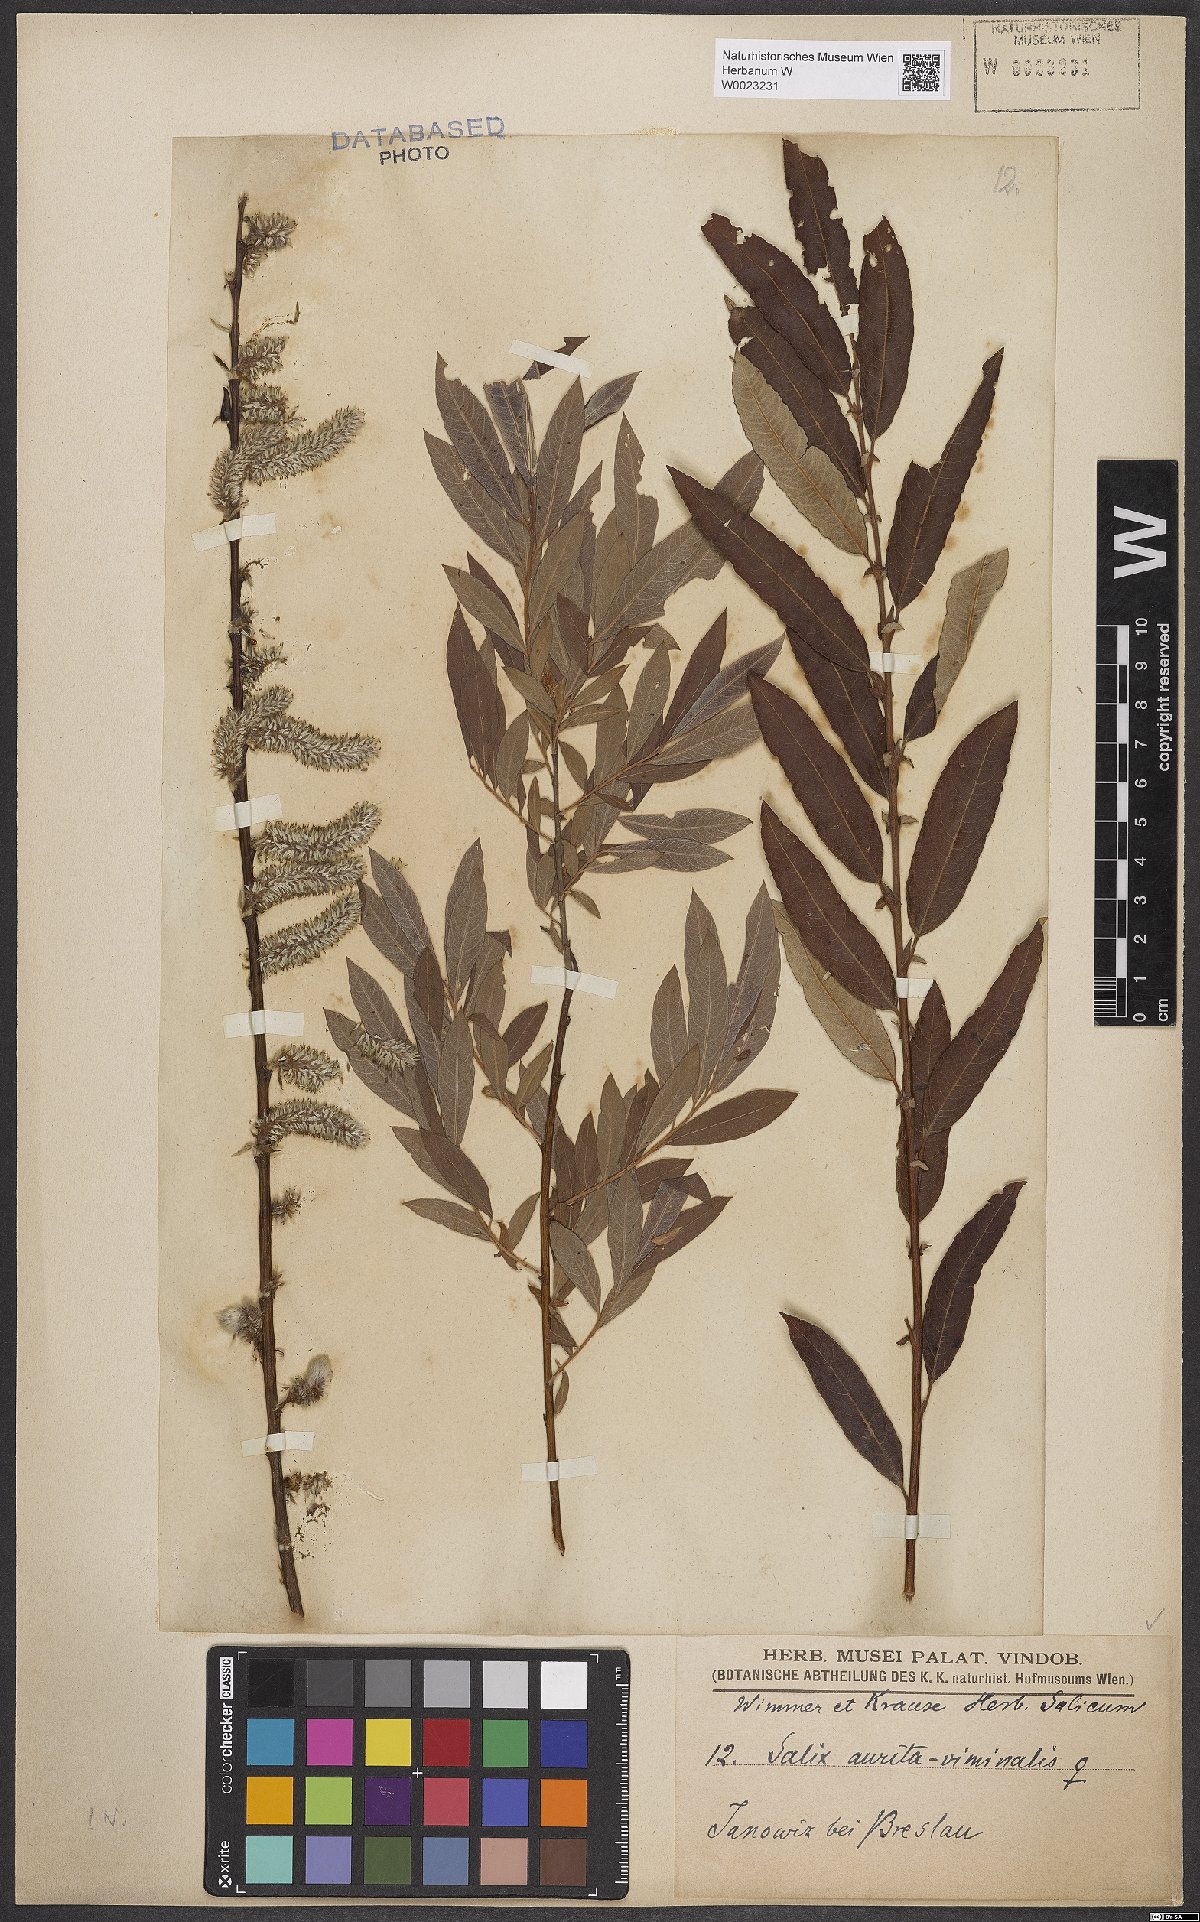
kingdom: Plantae
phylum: Tracheophyta
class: Magnoliopsida
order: Malpighiales
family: Salicaceae
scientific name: Salicaceae
